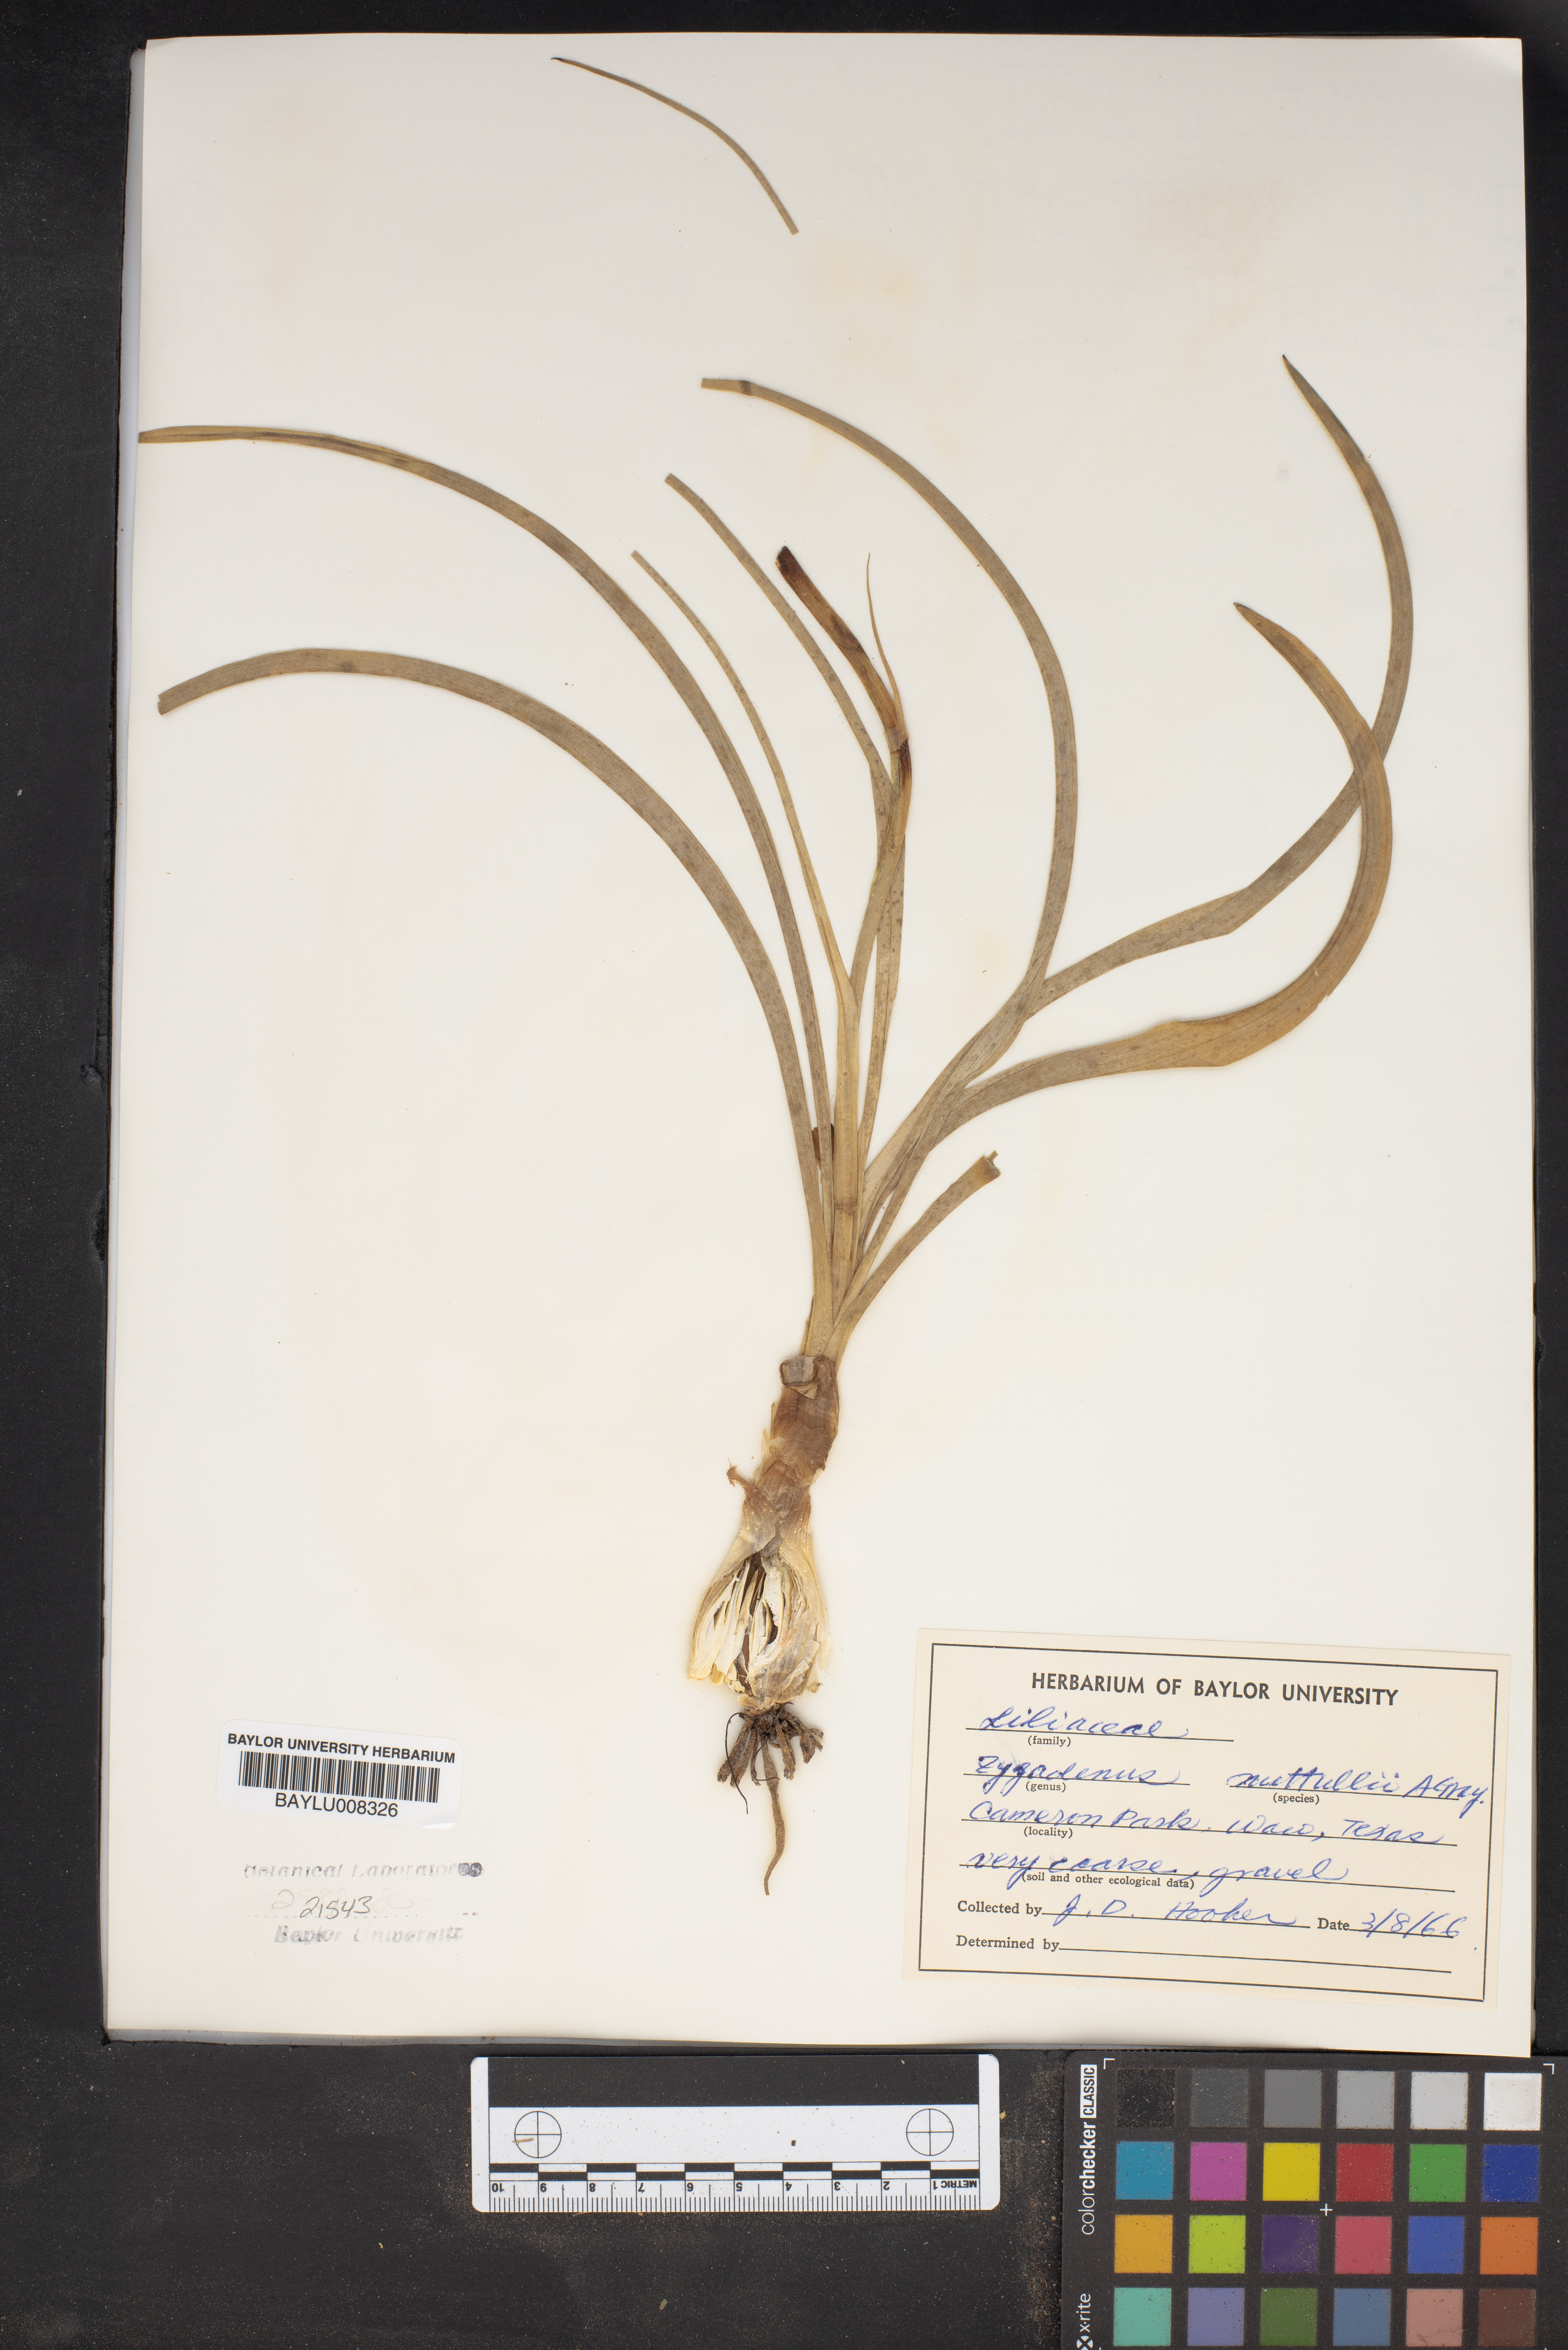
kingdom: Plantae
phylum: Tracheophyta
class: Liliopsida
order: Liliales
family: Melanthiaceae
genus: Toxicoscordion
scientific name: Toxicoscordion nuttallii
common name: Poison sego
